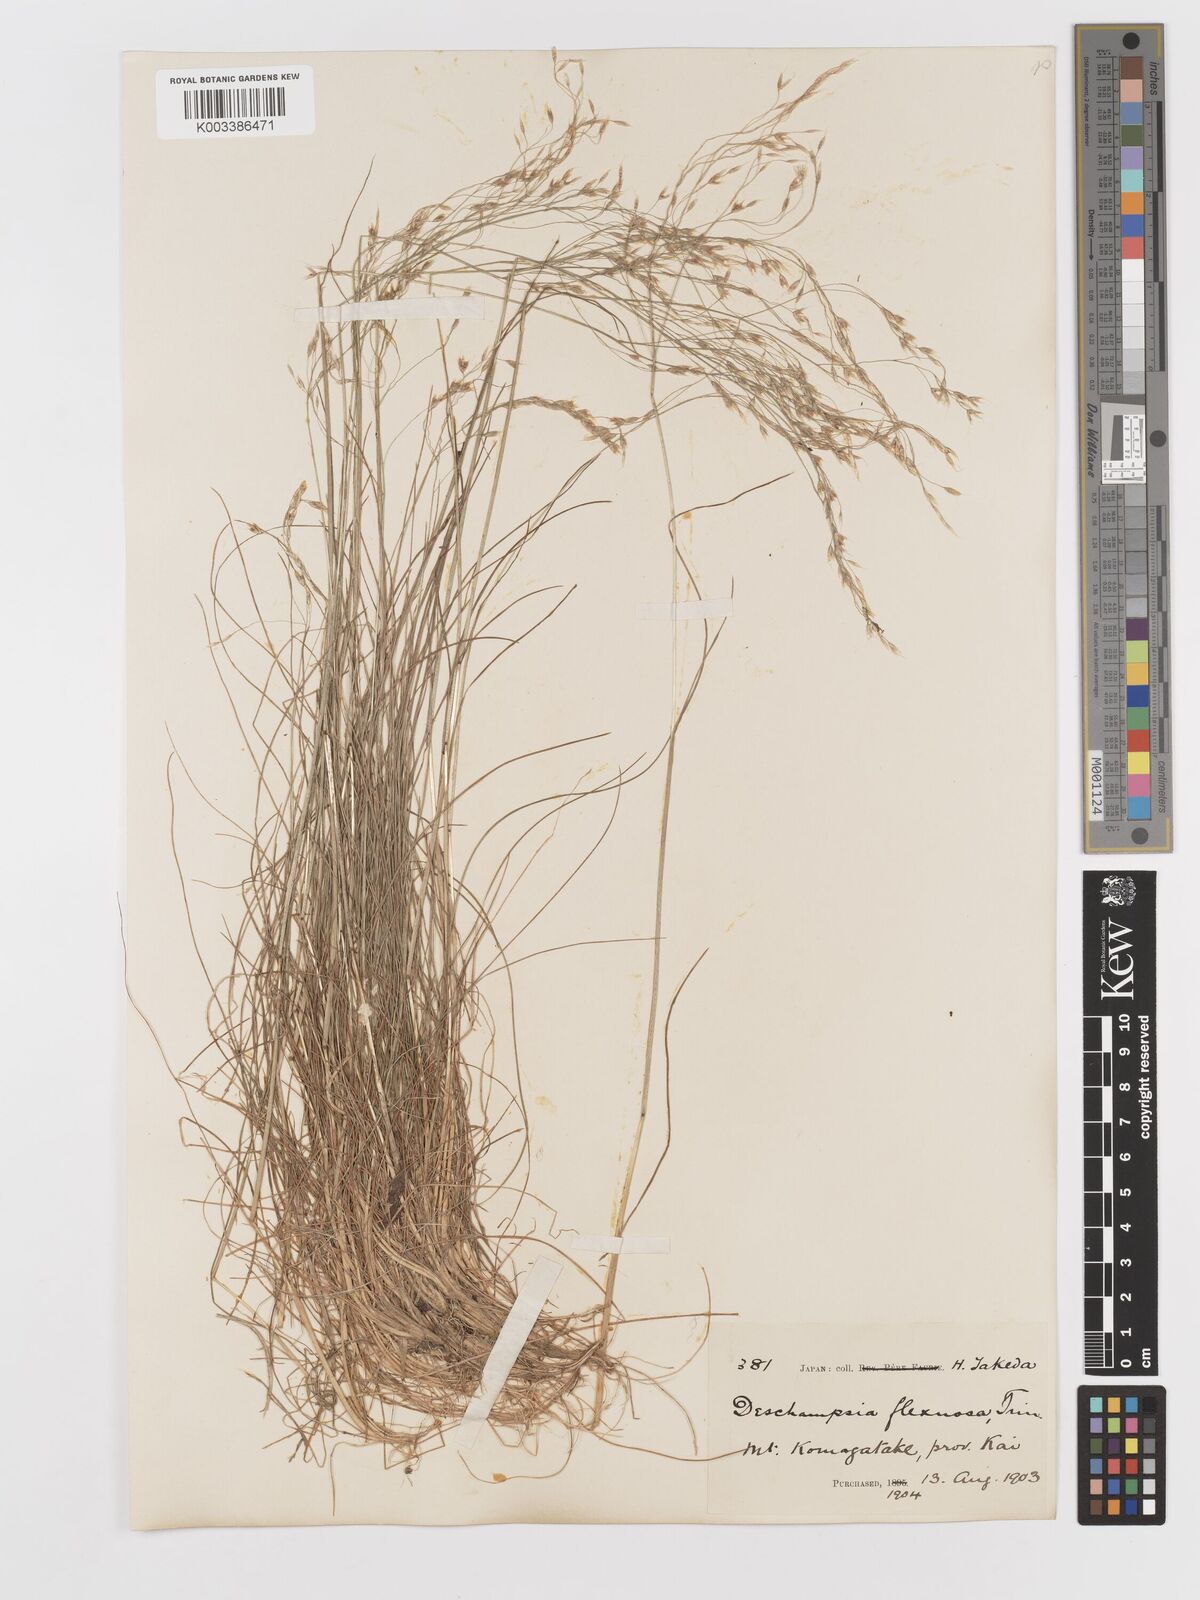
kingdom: Plantae
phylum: Tracheophyta
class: Liliopsida
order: Poales
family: Poaceae
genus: Avenella
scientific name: Avenella flexuosa
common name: Wavy hairgrass
